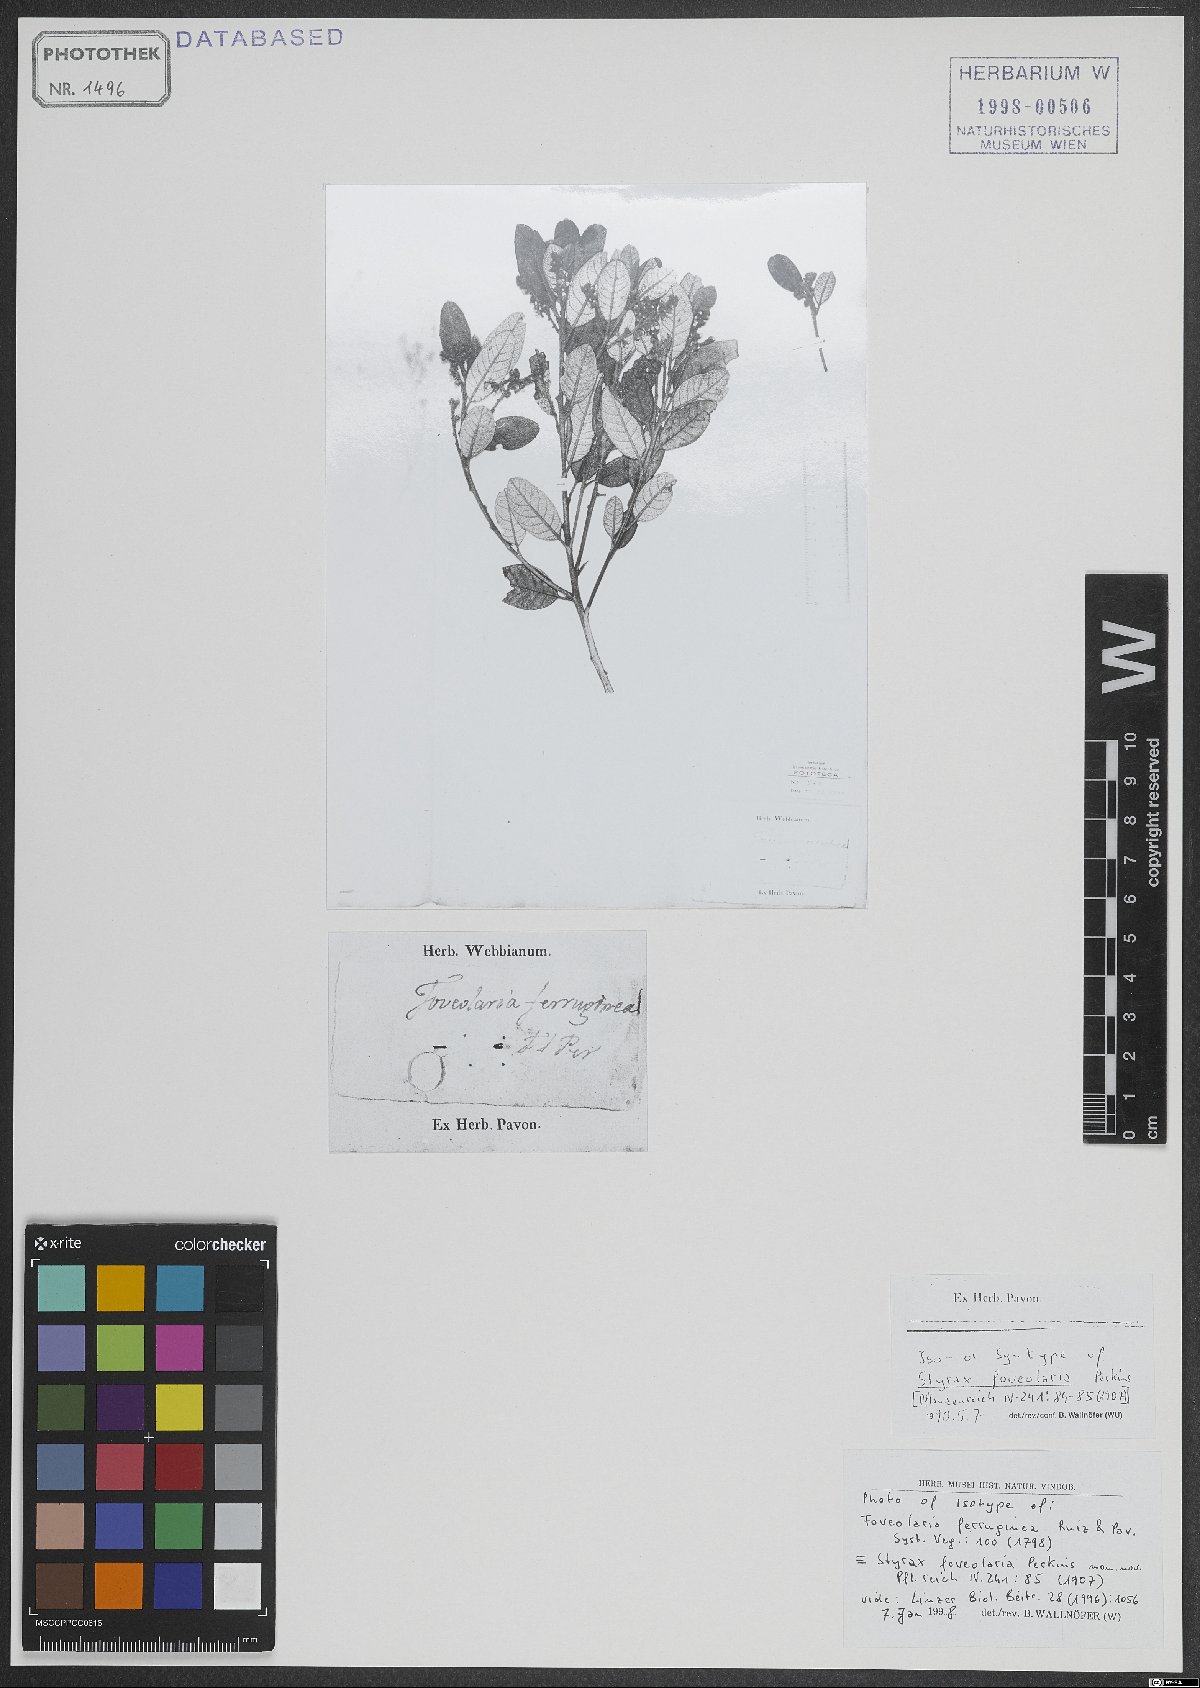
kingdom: Plantae
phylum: Tracheophyta
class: Magnoliopsida
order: Ericales
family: Styracaceae
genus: Styrax
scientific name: Styrax racemosus
